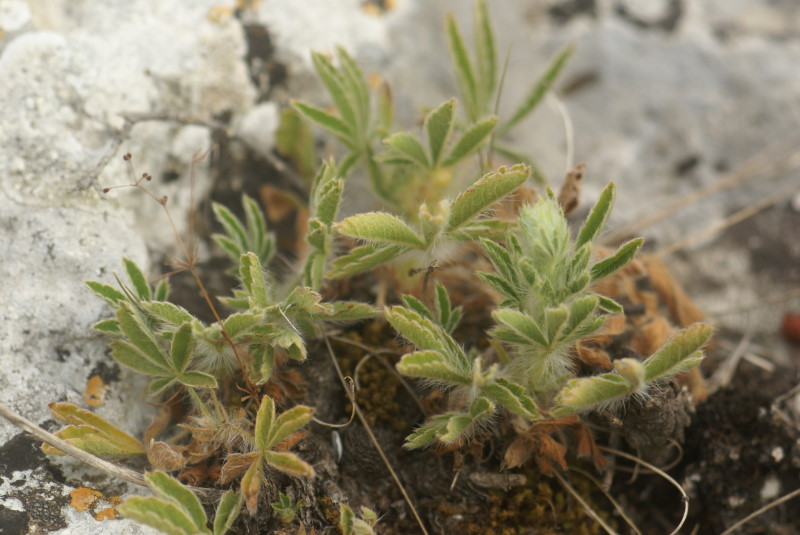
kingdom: Plantae
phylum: Tracheophyta
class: Magnoliopsida
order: Rosales
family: Rosaceae
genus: Potentilla
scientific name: Potentilla
